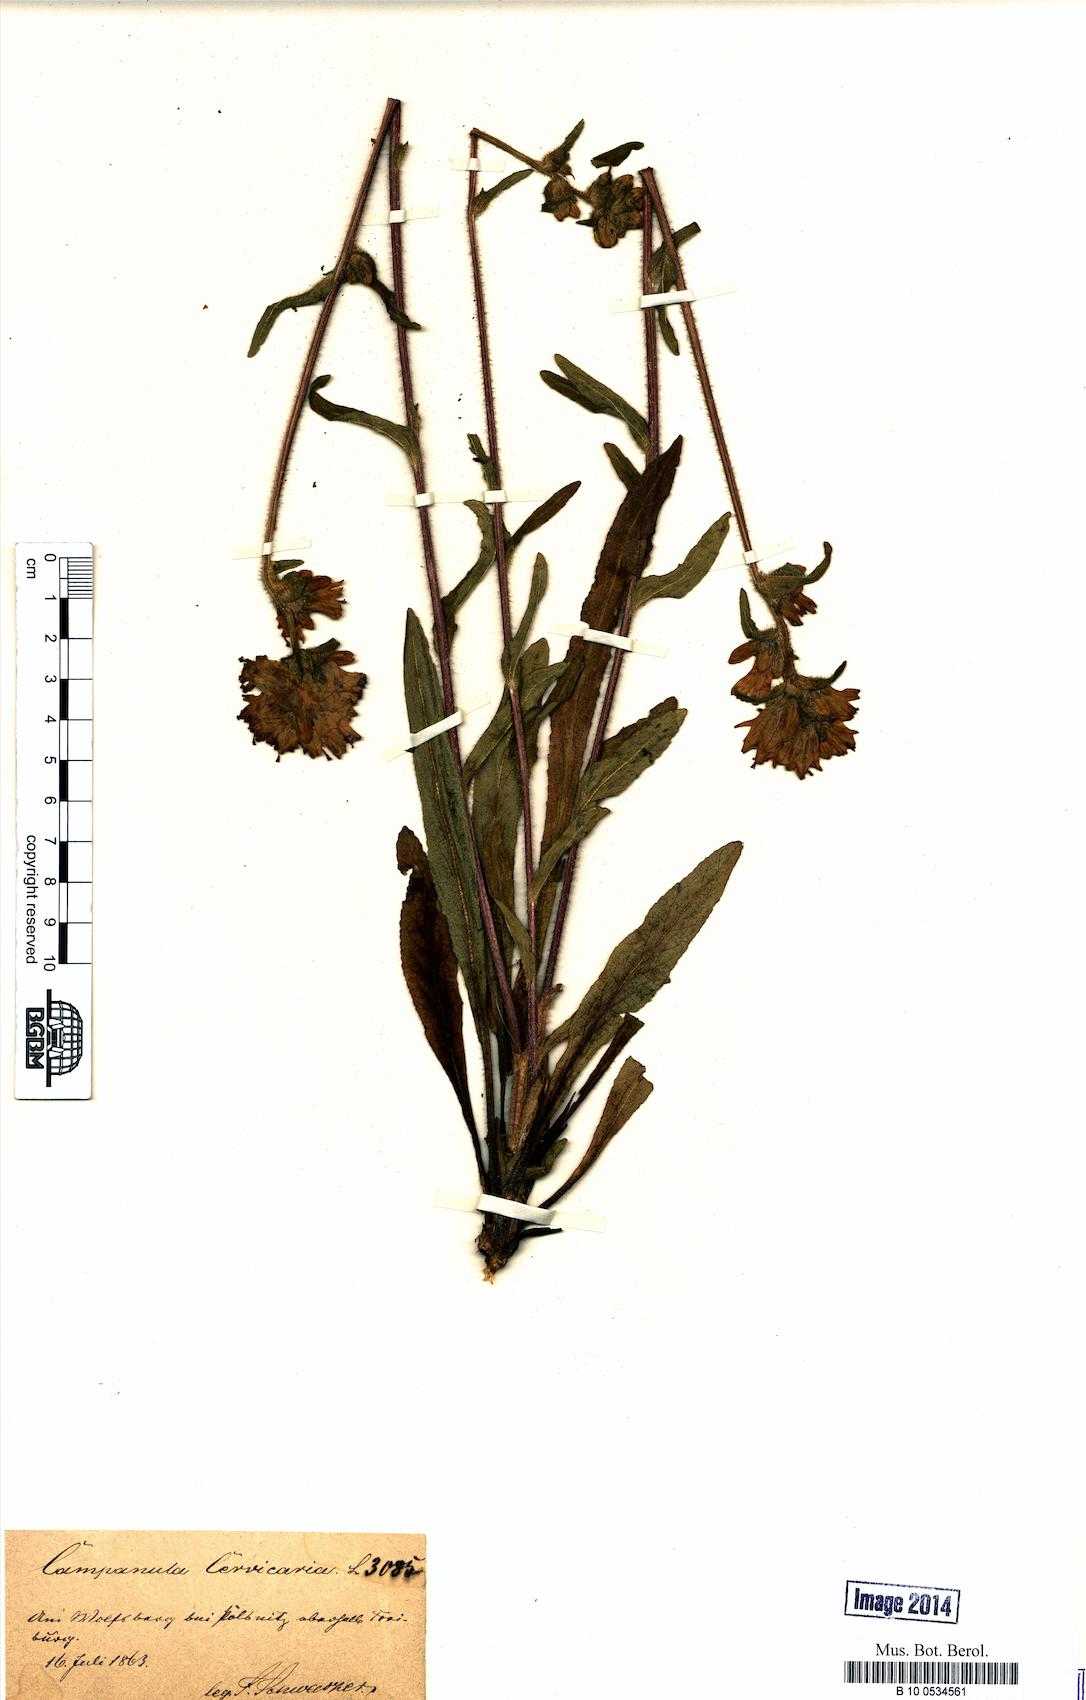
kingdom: Plantae
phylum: Tracheophyta
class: Magnoliopsida
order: Asterales
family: Campanulaceae
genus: Campanula
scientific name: Campanula cervicaria
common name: Bristly bellflower
